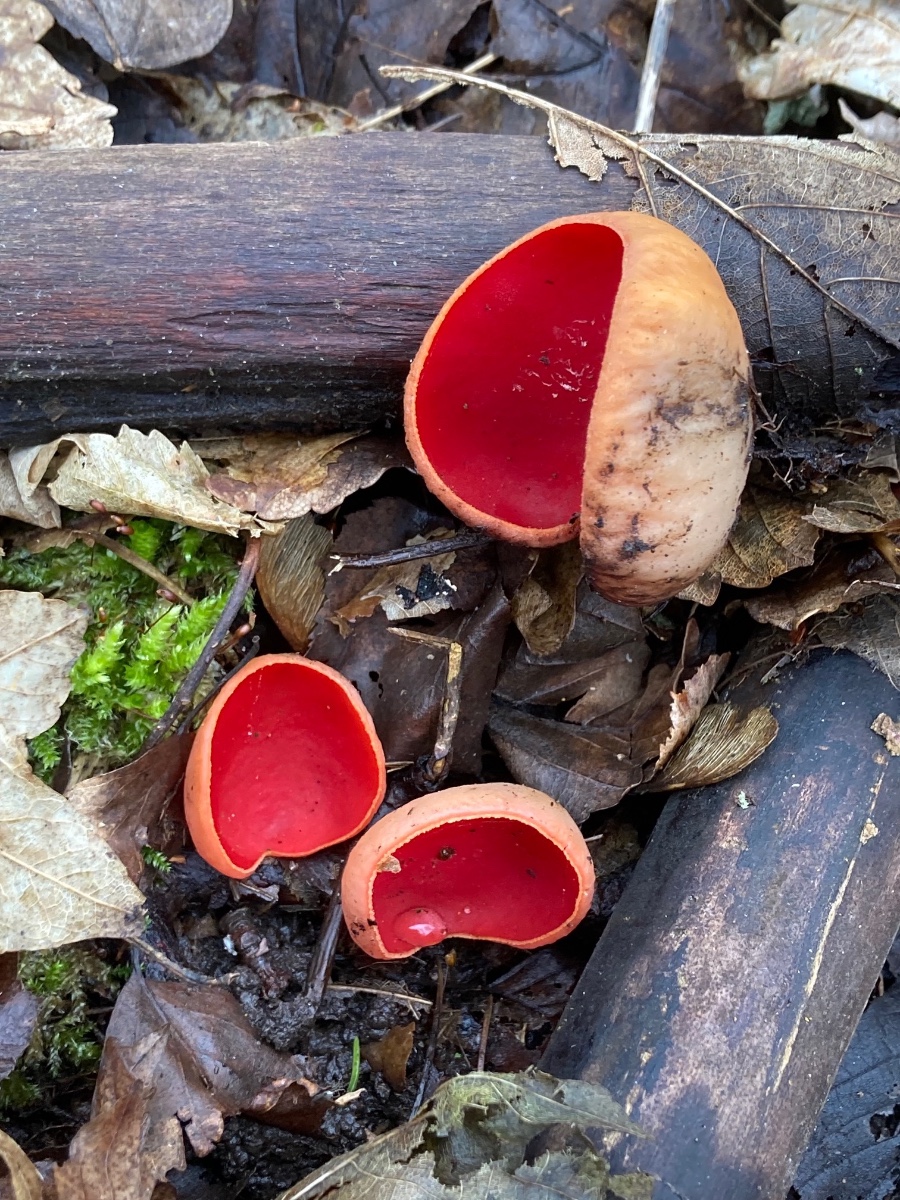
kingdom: Fungi
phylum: Ascomycota
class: Pezizomycetes
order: Pezizales
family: Sarcoscyphaceae
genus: Sarcoscypha
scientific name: Sarcoscypha austriaca
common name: krølhåret pragtbæger
